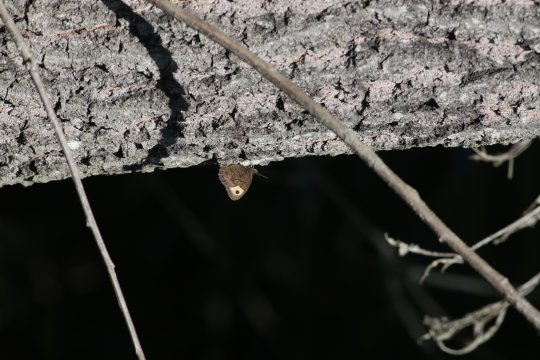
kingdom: Animalia
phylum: Arthropoda
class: Insecta
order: Lepidoptera
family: Nymphalidae
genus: Cercyonis
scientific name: Cercyonis pegala
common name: Common Wood-Nymph
